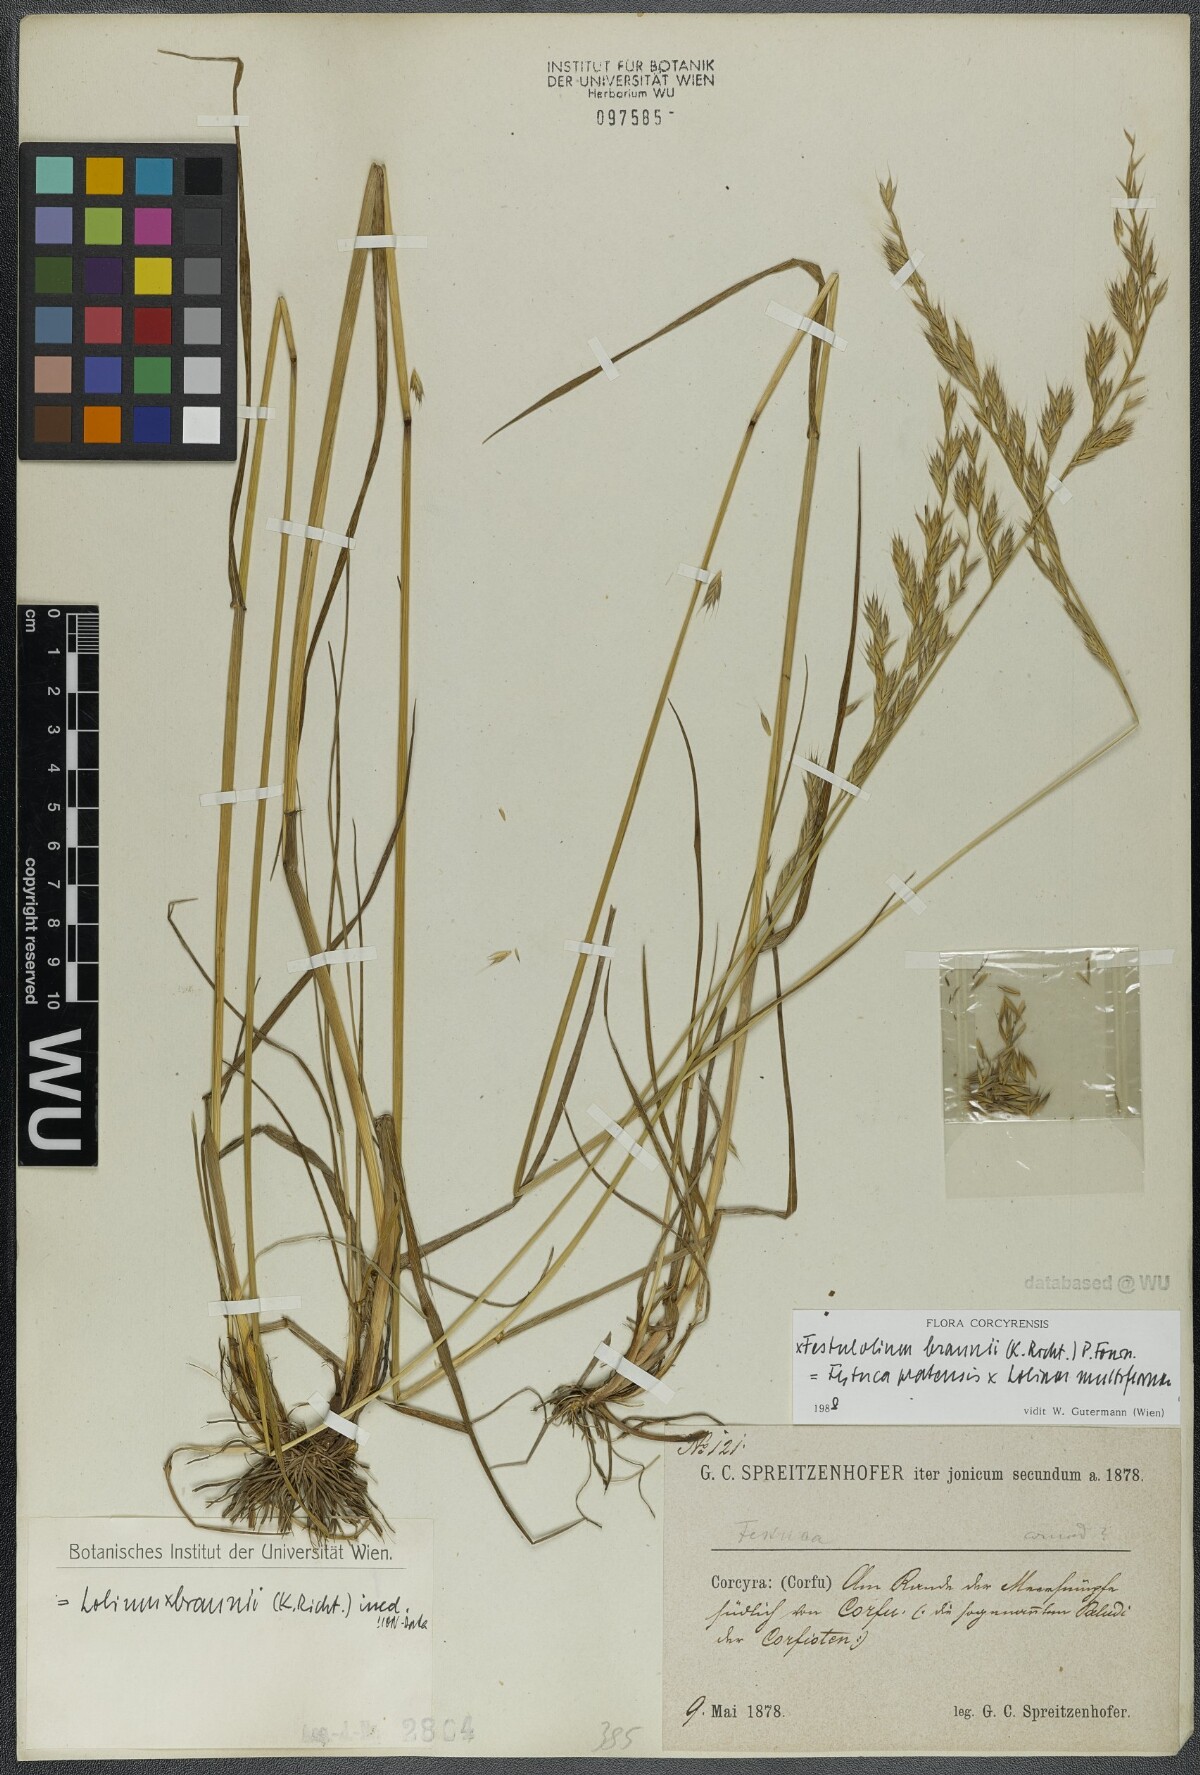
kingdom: Plantae
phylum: Tracheophyta
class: Liliopsida
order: Poales
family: Poaceae
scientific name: Poaceae
